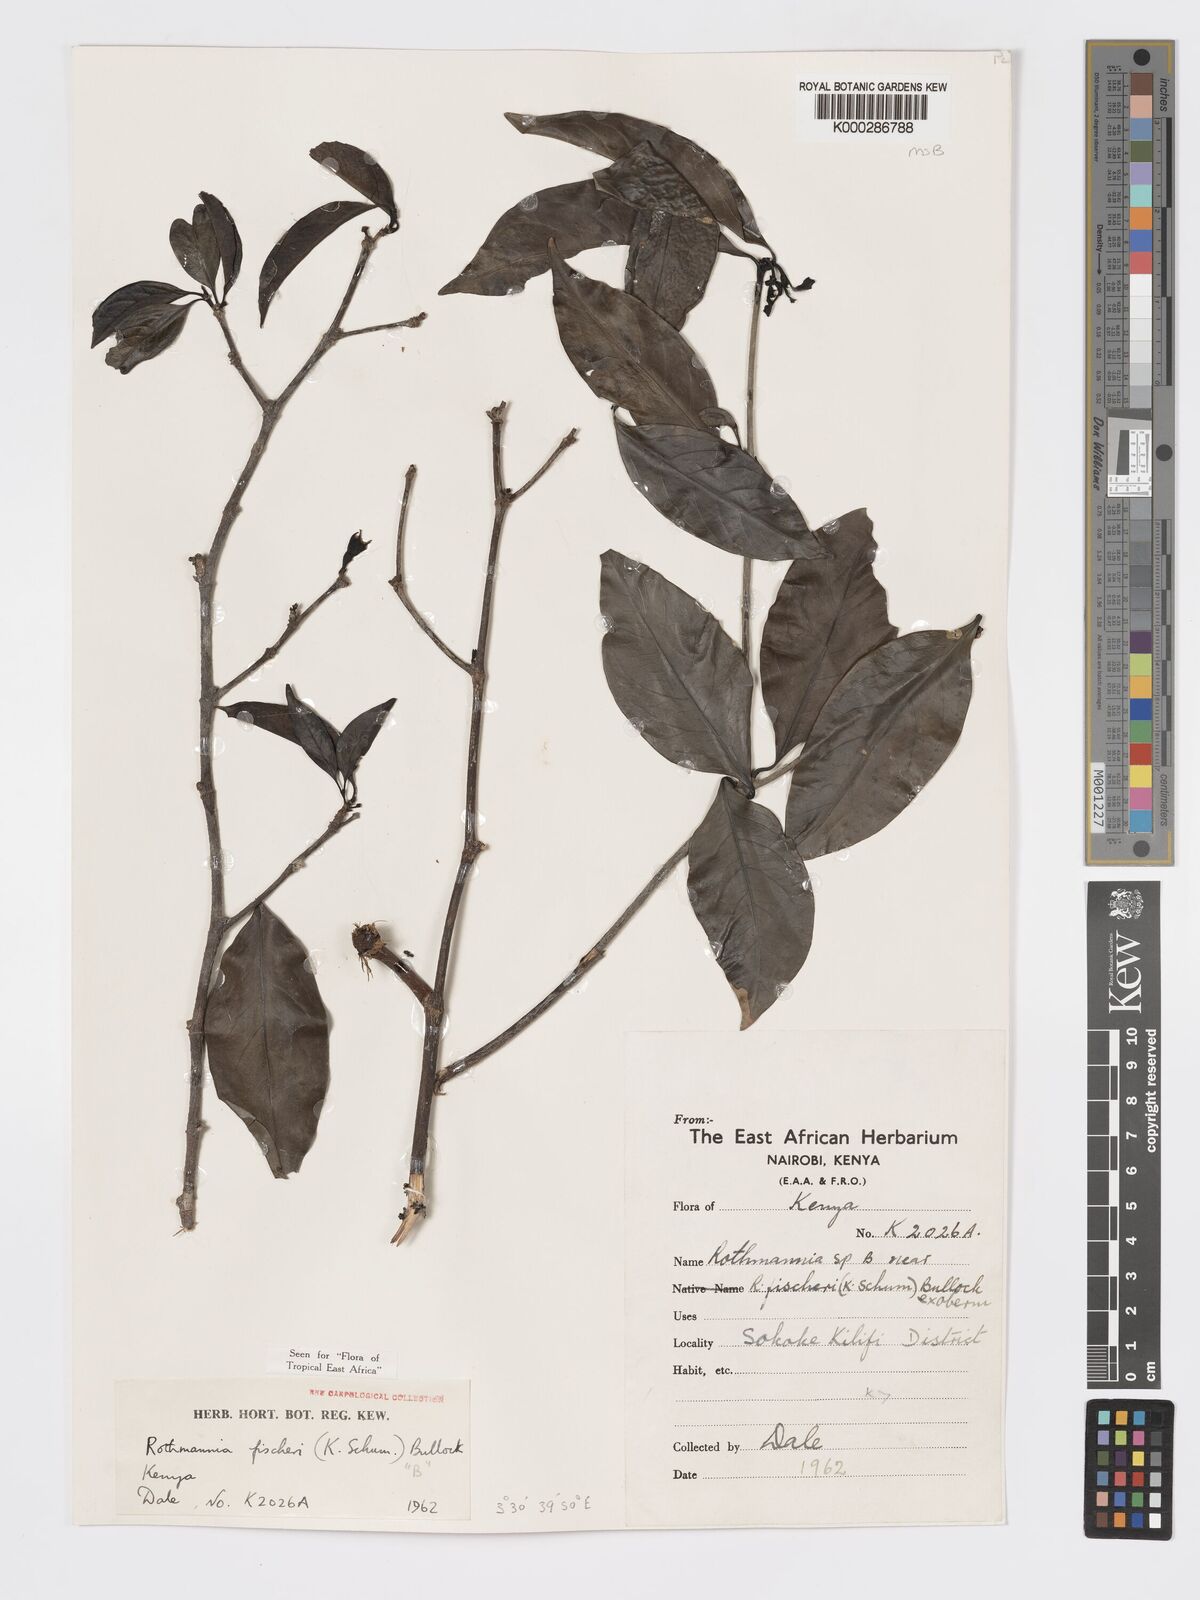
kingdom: Plantae
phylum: Tracheophyta
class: Magnoliopsida
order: Gentianales
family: Rubiaceae
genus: Rothmannia
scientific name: Rothmannia ravae
